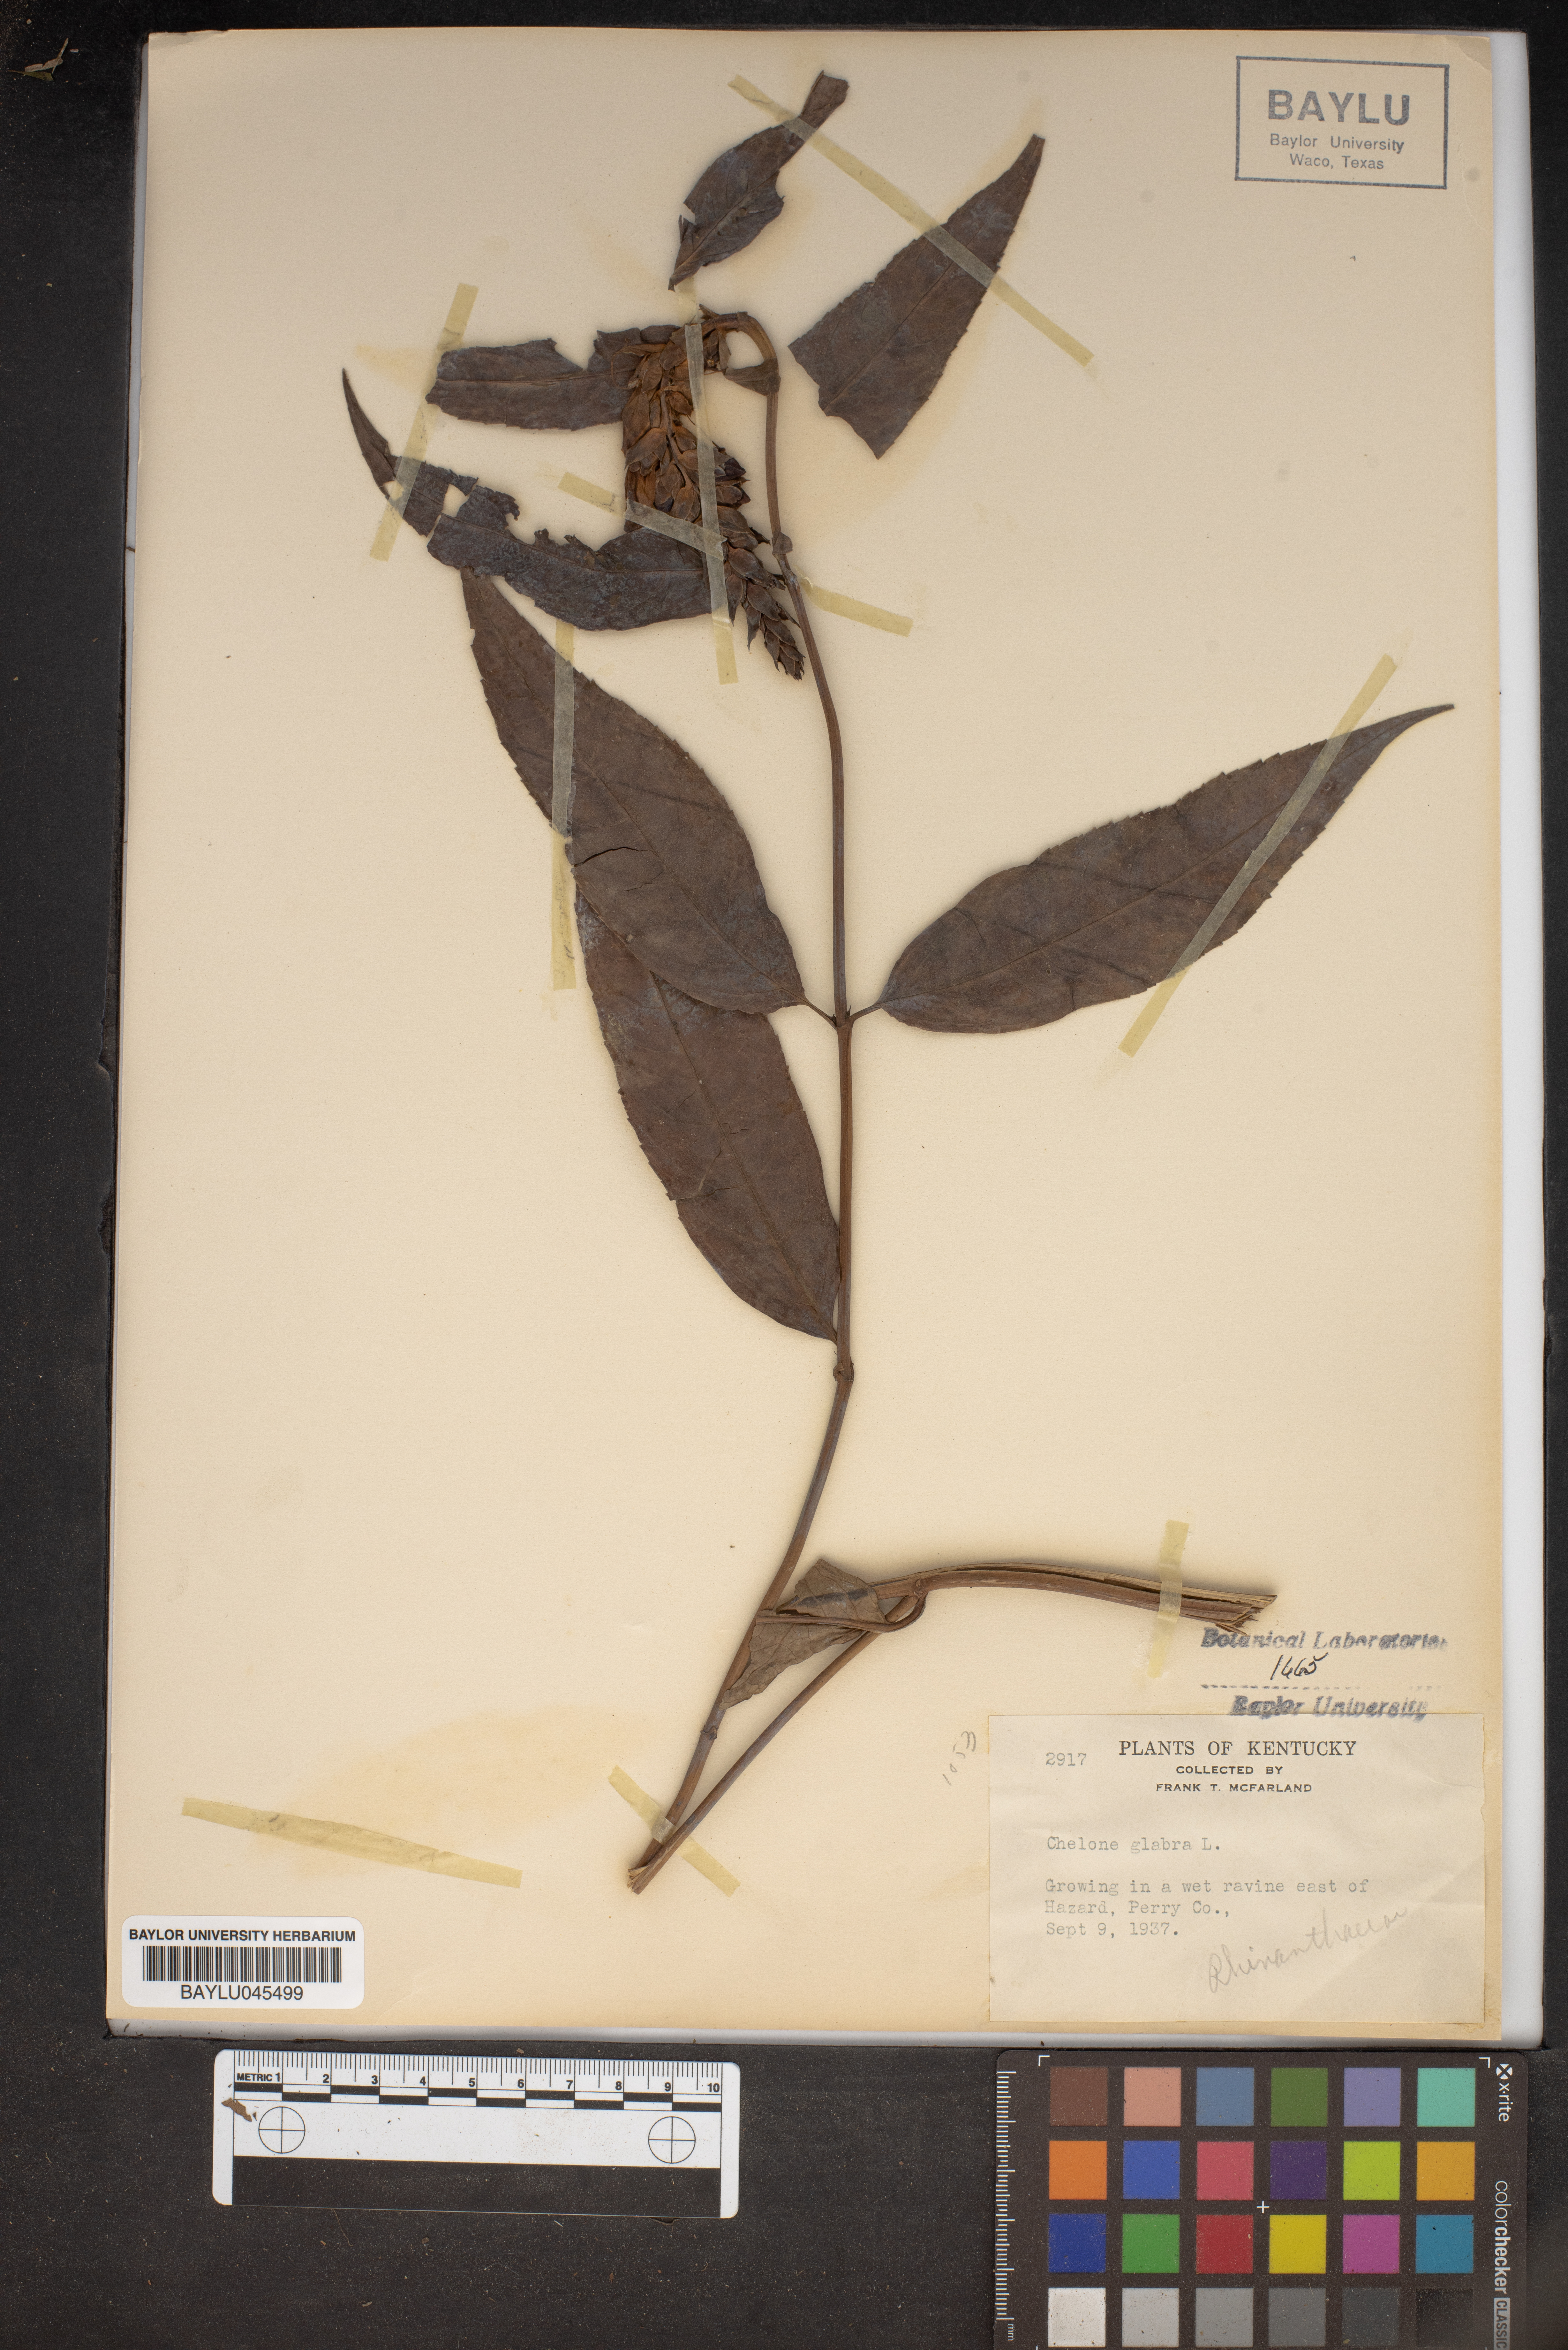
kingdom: Plantae
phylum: Tracheophyta
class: Magnoliopsida
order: Lamiales
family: Plantaginaceae
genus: Chelone
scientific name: Chelone glabra
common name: Snakehead
